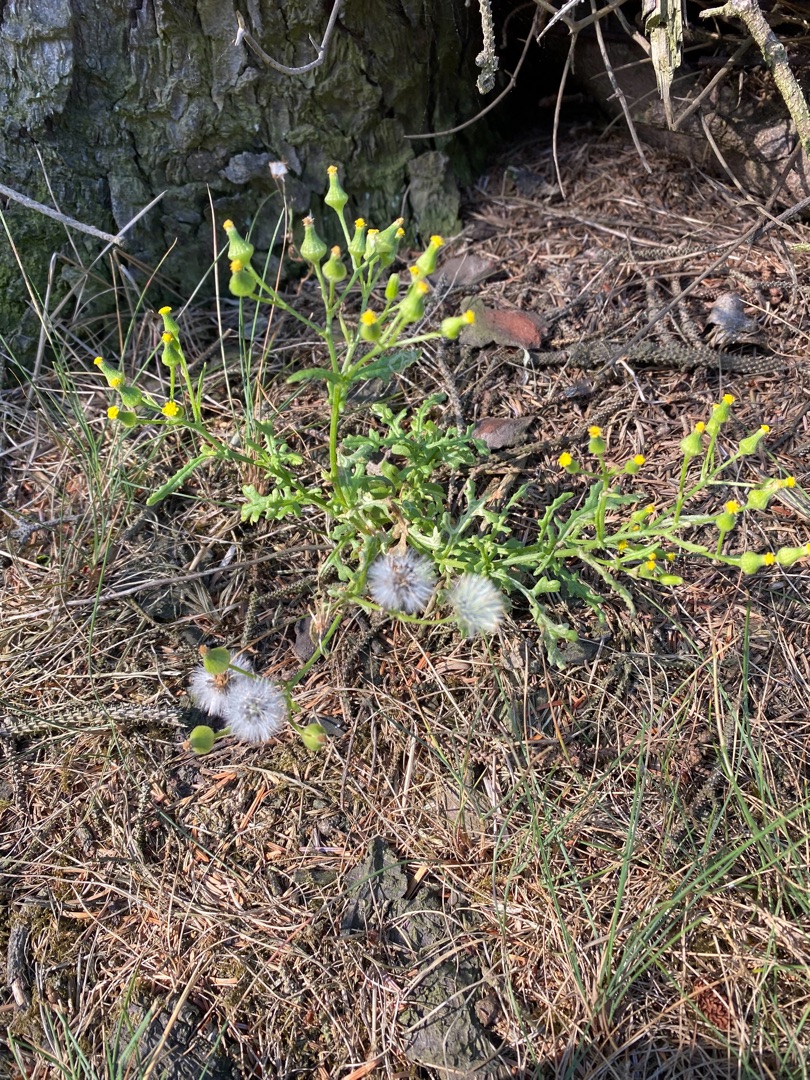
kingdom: Plantae
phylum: Tracheophyta
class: Magnoliopsida
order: Asterales
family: Asteraceae
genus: Senecio
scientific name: Senecio sylvaticus
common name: Skov-brandbæger
